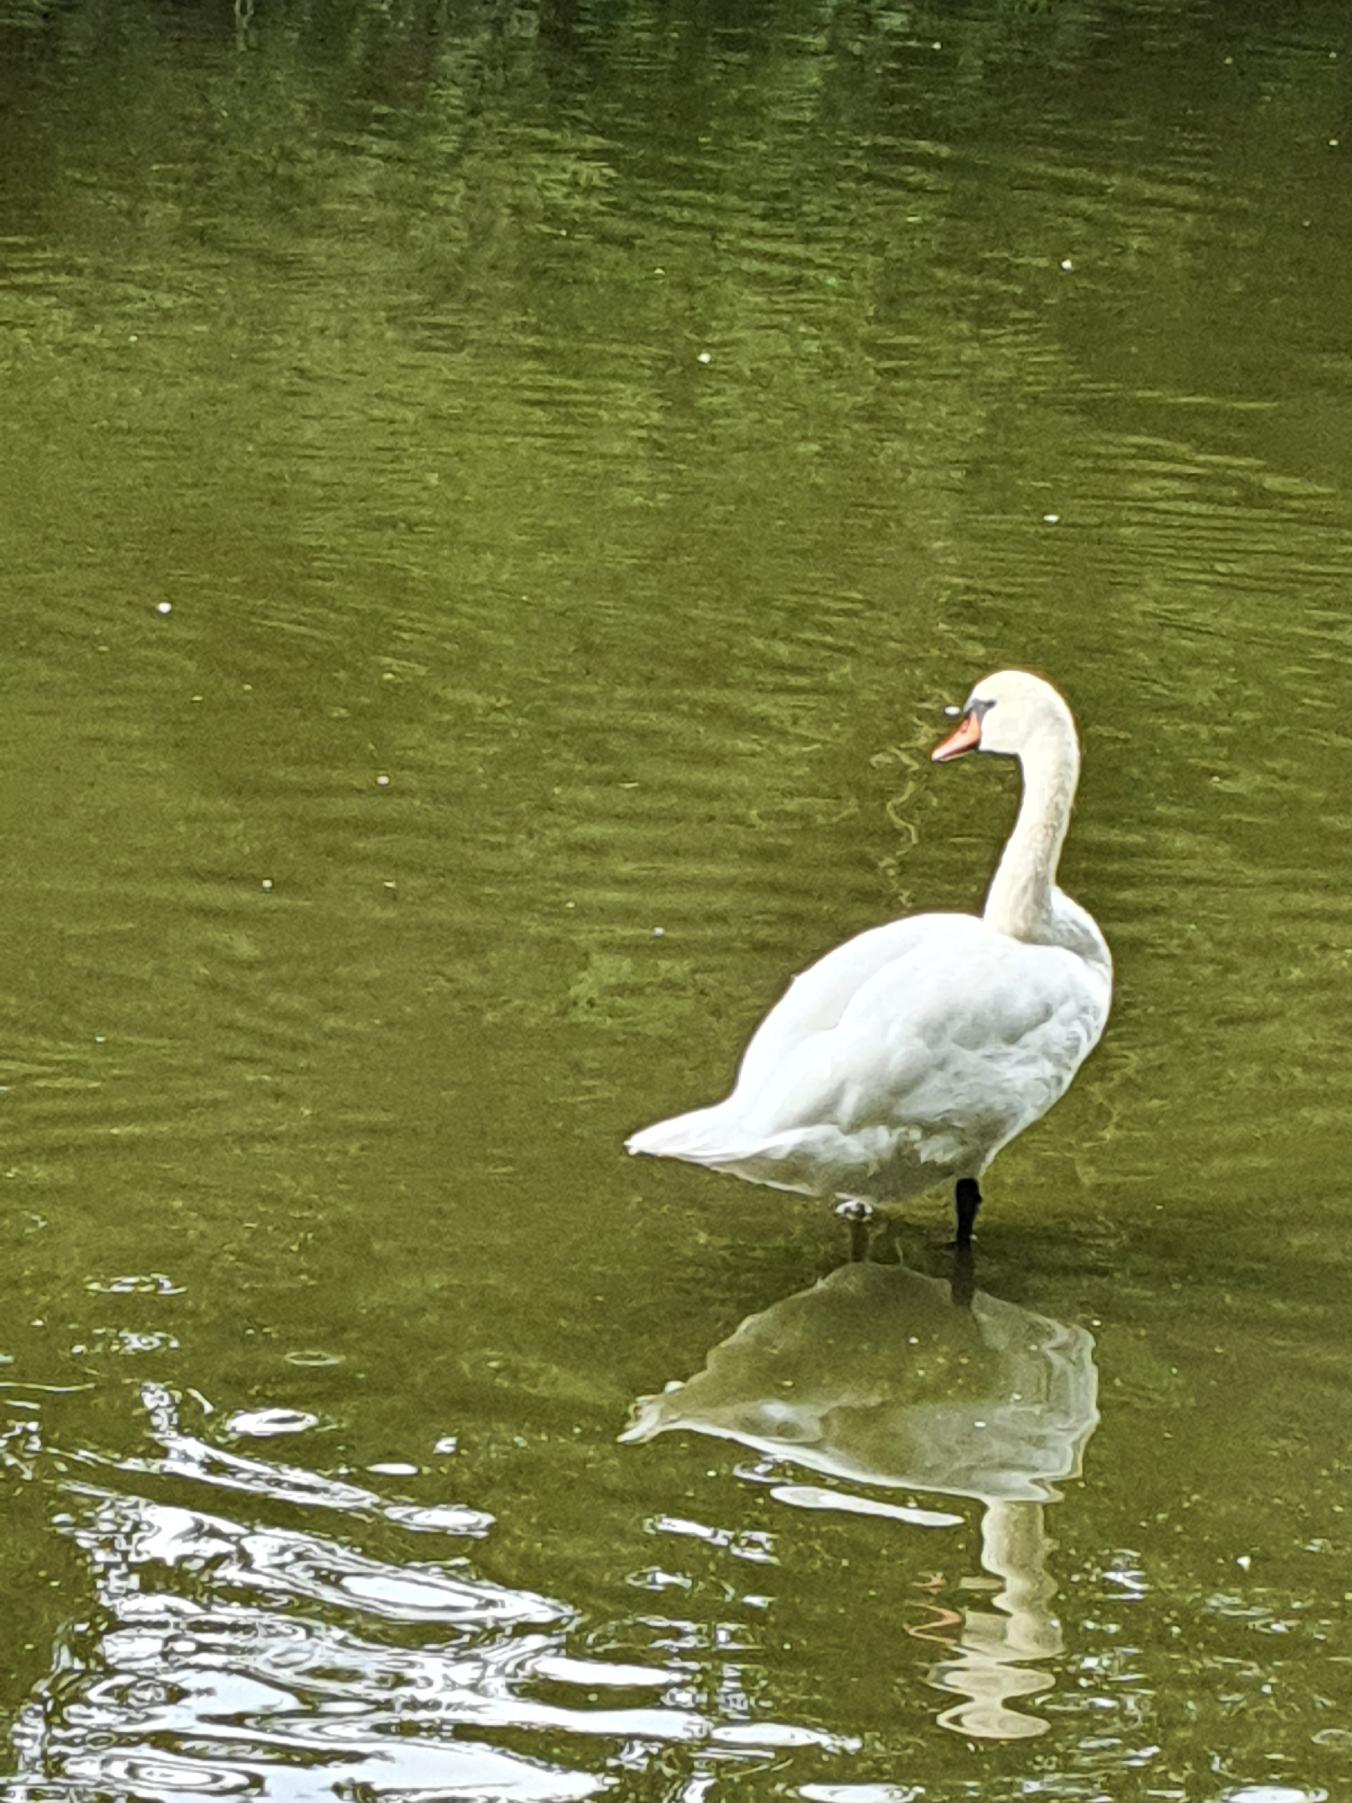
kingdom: Animalia
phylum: Chordata
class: Aves
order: Anseriformes
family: Anatidae
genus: Cygnus
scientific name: Cygnus olor
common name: Knopsvane
